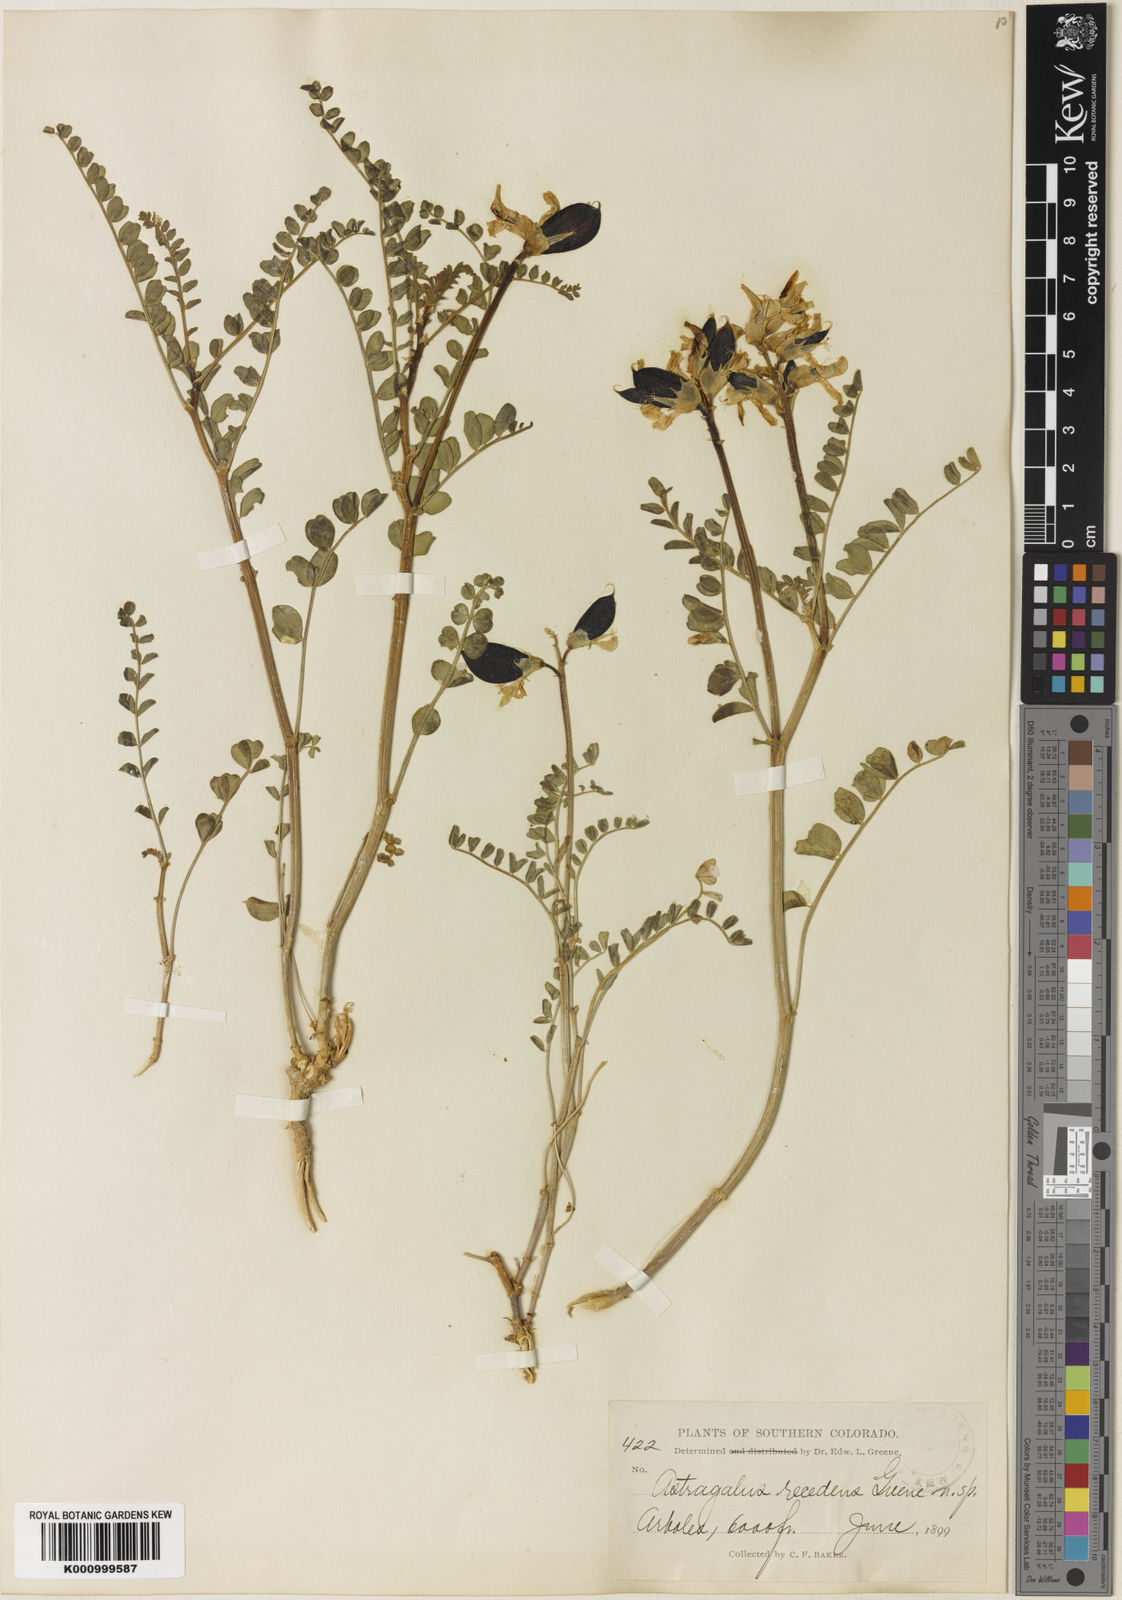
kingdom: Plantae
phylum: Tracheophyta
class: Magnoliopsida
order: Fabales
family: Fabaceae
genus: Astragalus
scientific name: Astragalus
